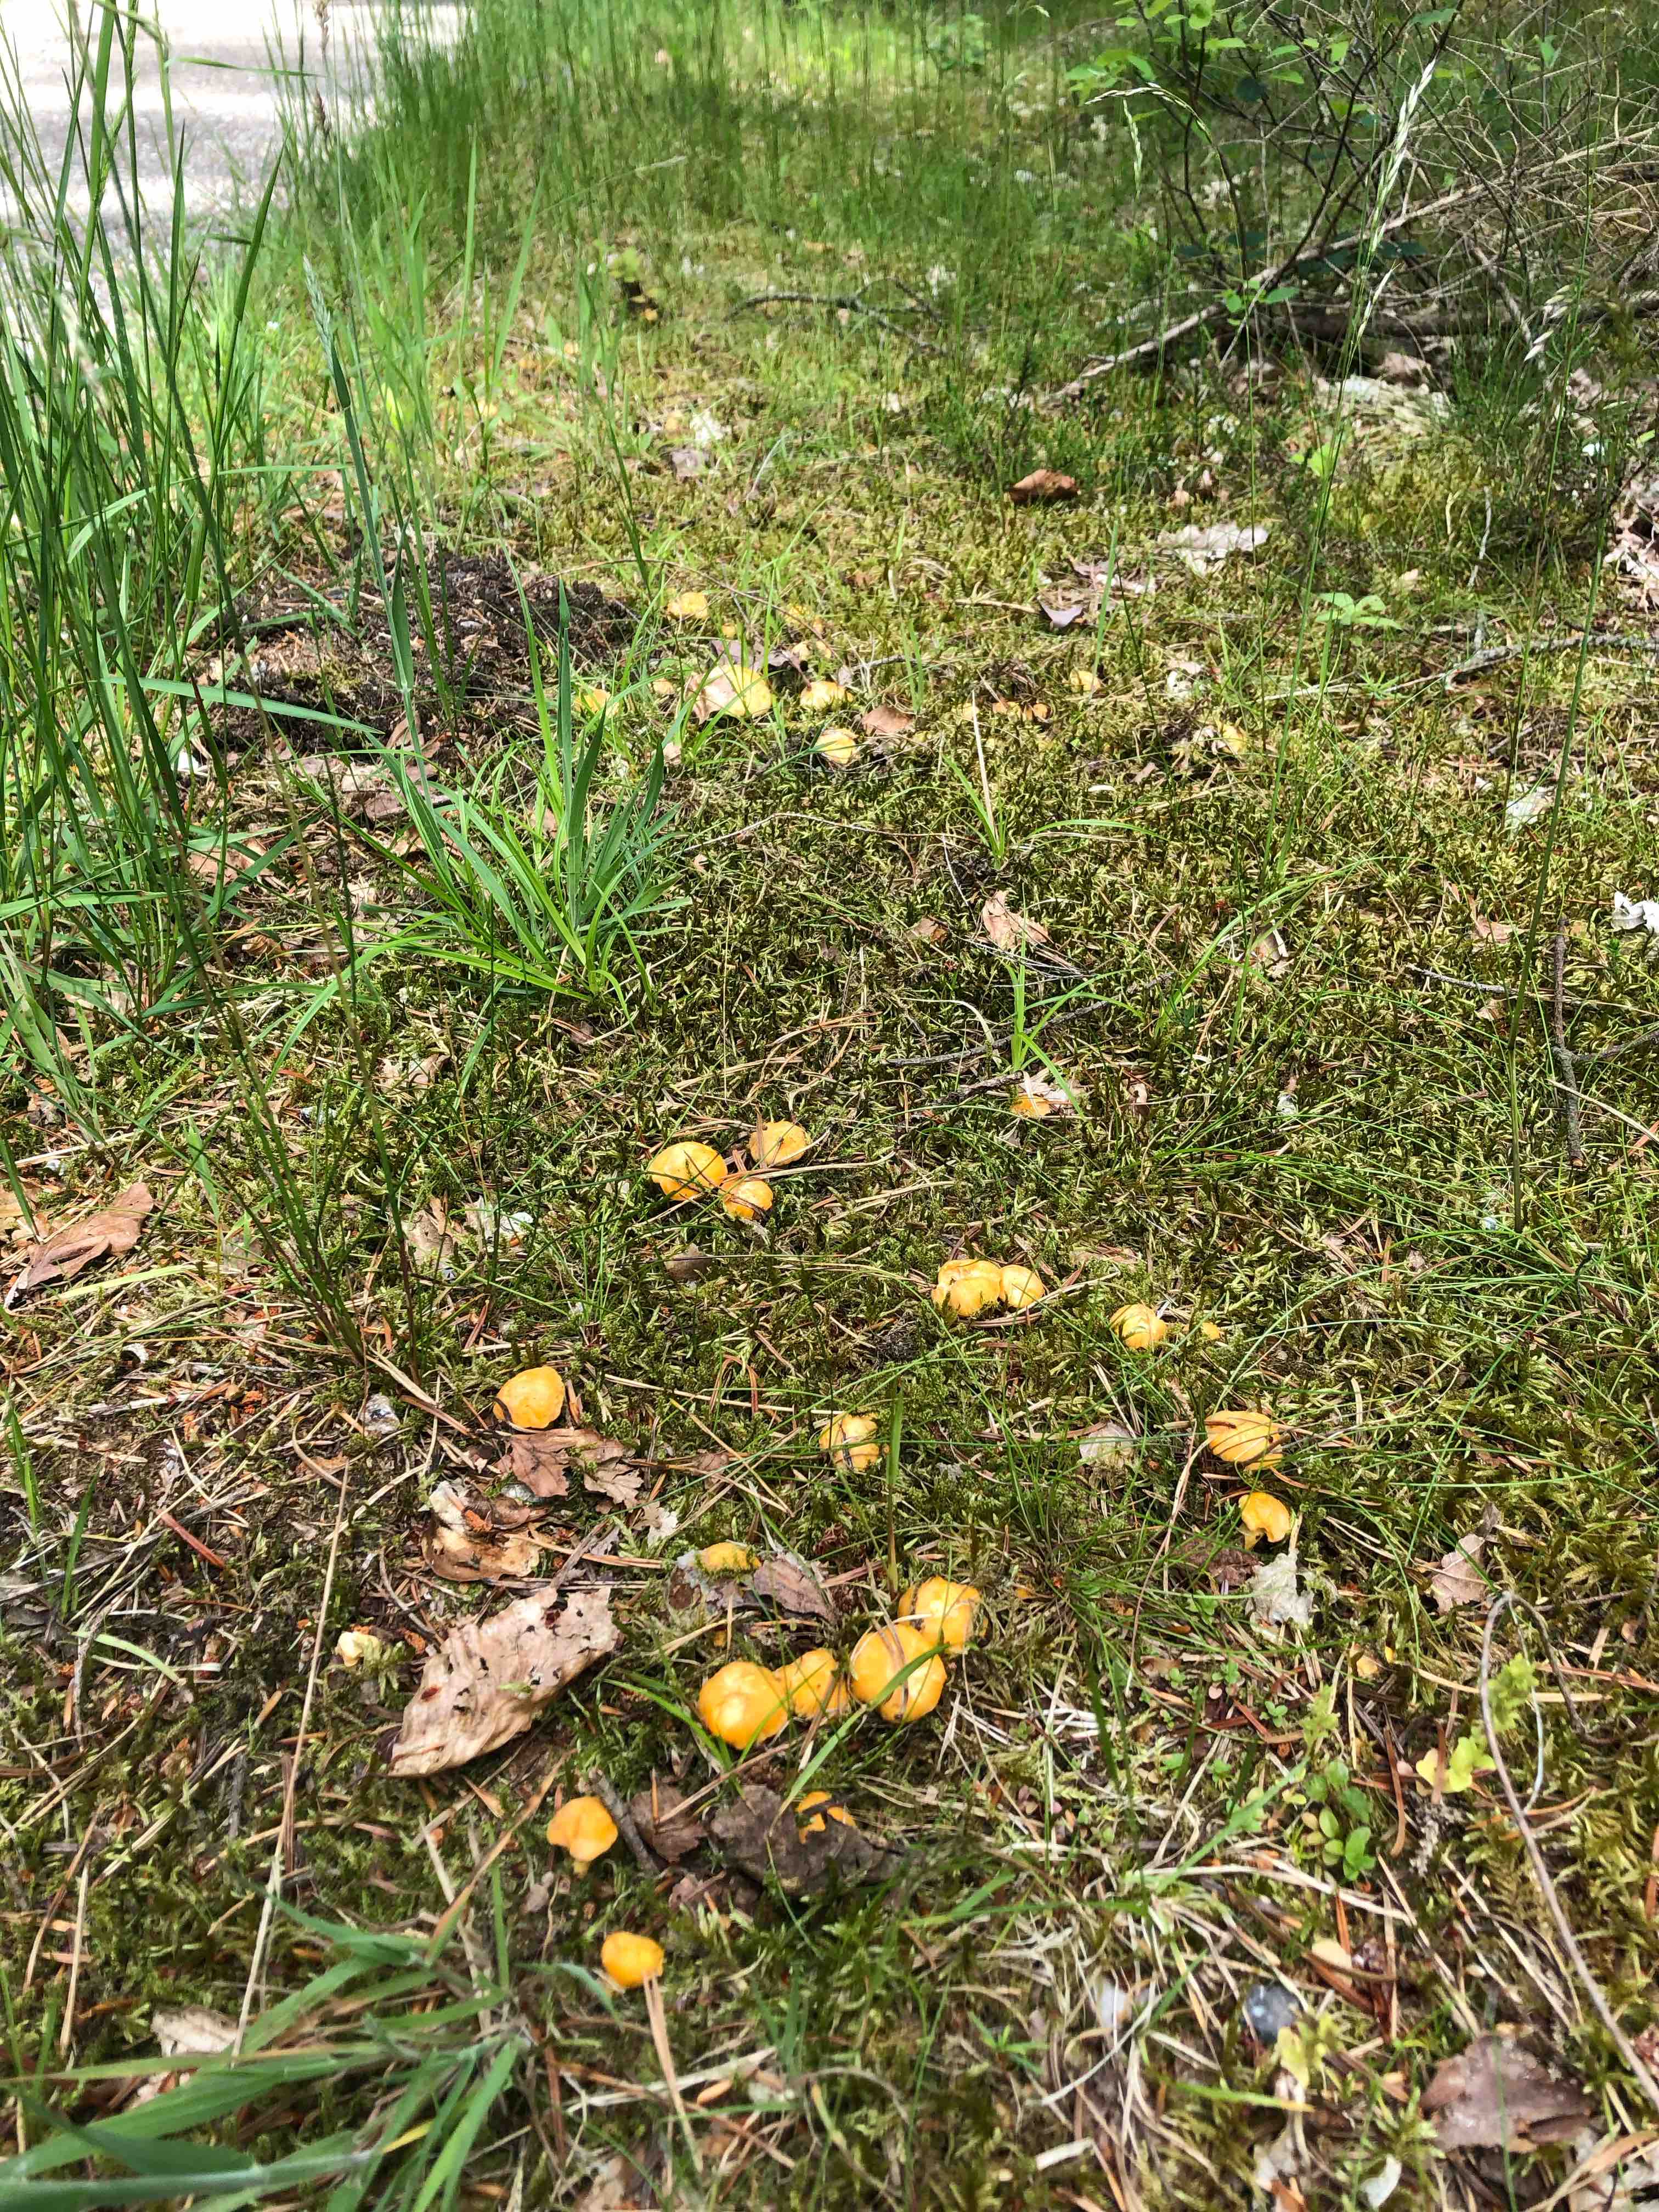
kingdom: Fungi
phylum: Basidiomycota
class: Agaricomycetes
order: Cantharellales
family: Hydnaceae
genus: Cantharellus
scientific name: Cantharellus cibarius
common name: almindelig kantarel
